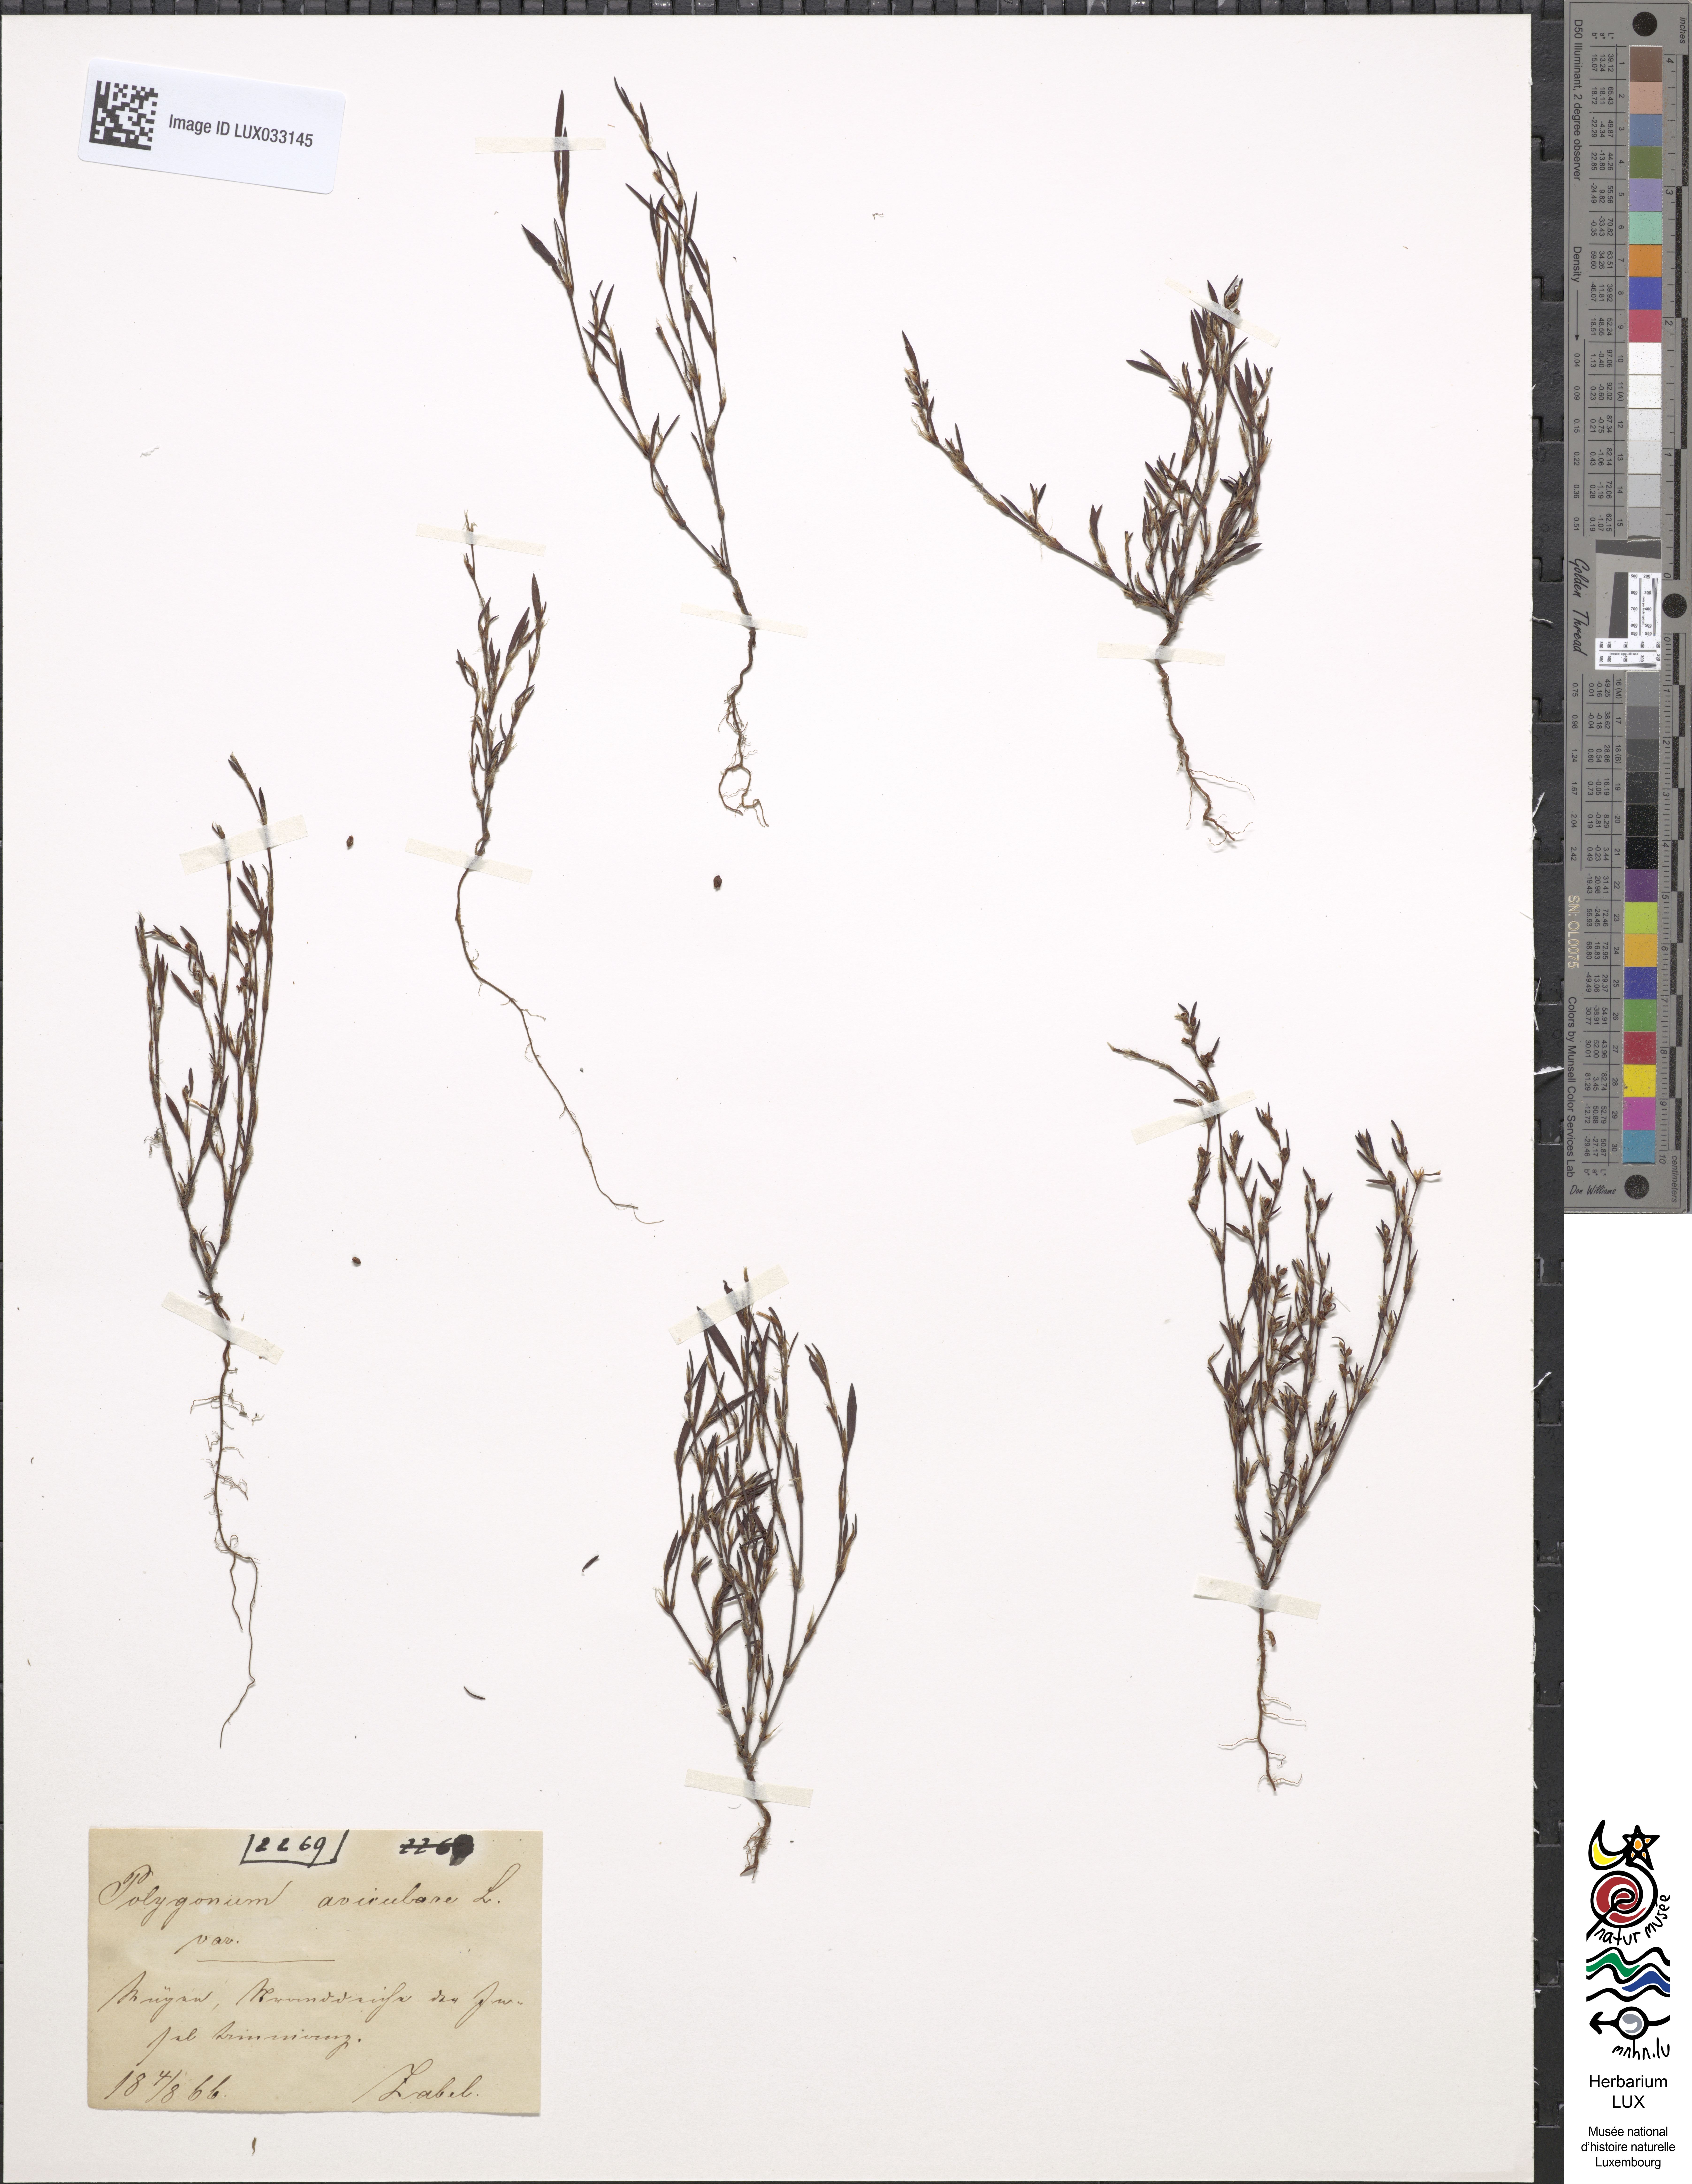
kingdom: Plantae
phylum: Tracheophyta
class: Magnoliopsida
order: Caryophyllales
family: Polygonaceae
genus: Polygonum
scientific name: Polygonum aviculare
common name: Prostrate knotweed
